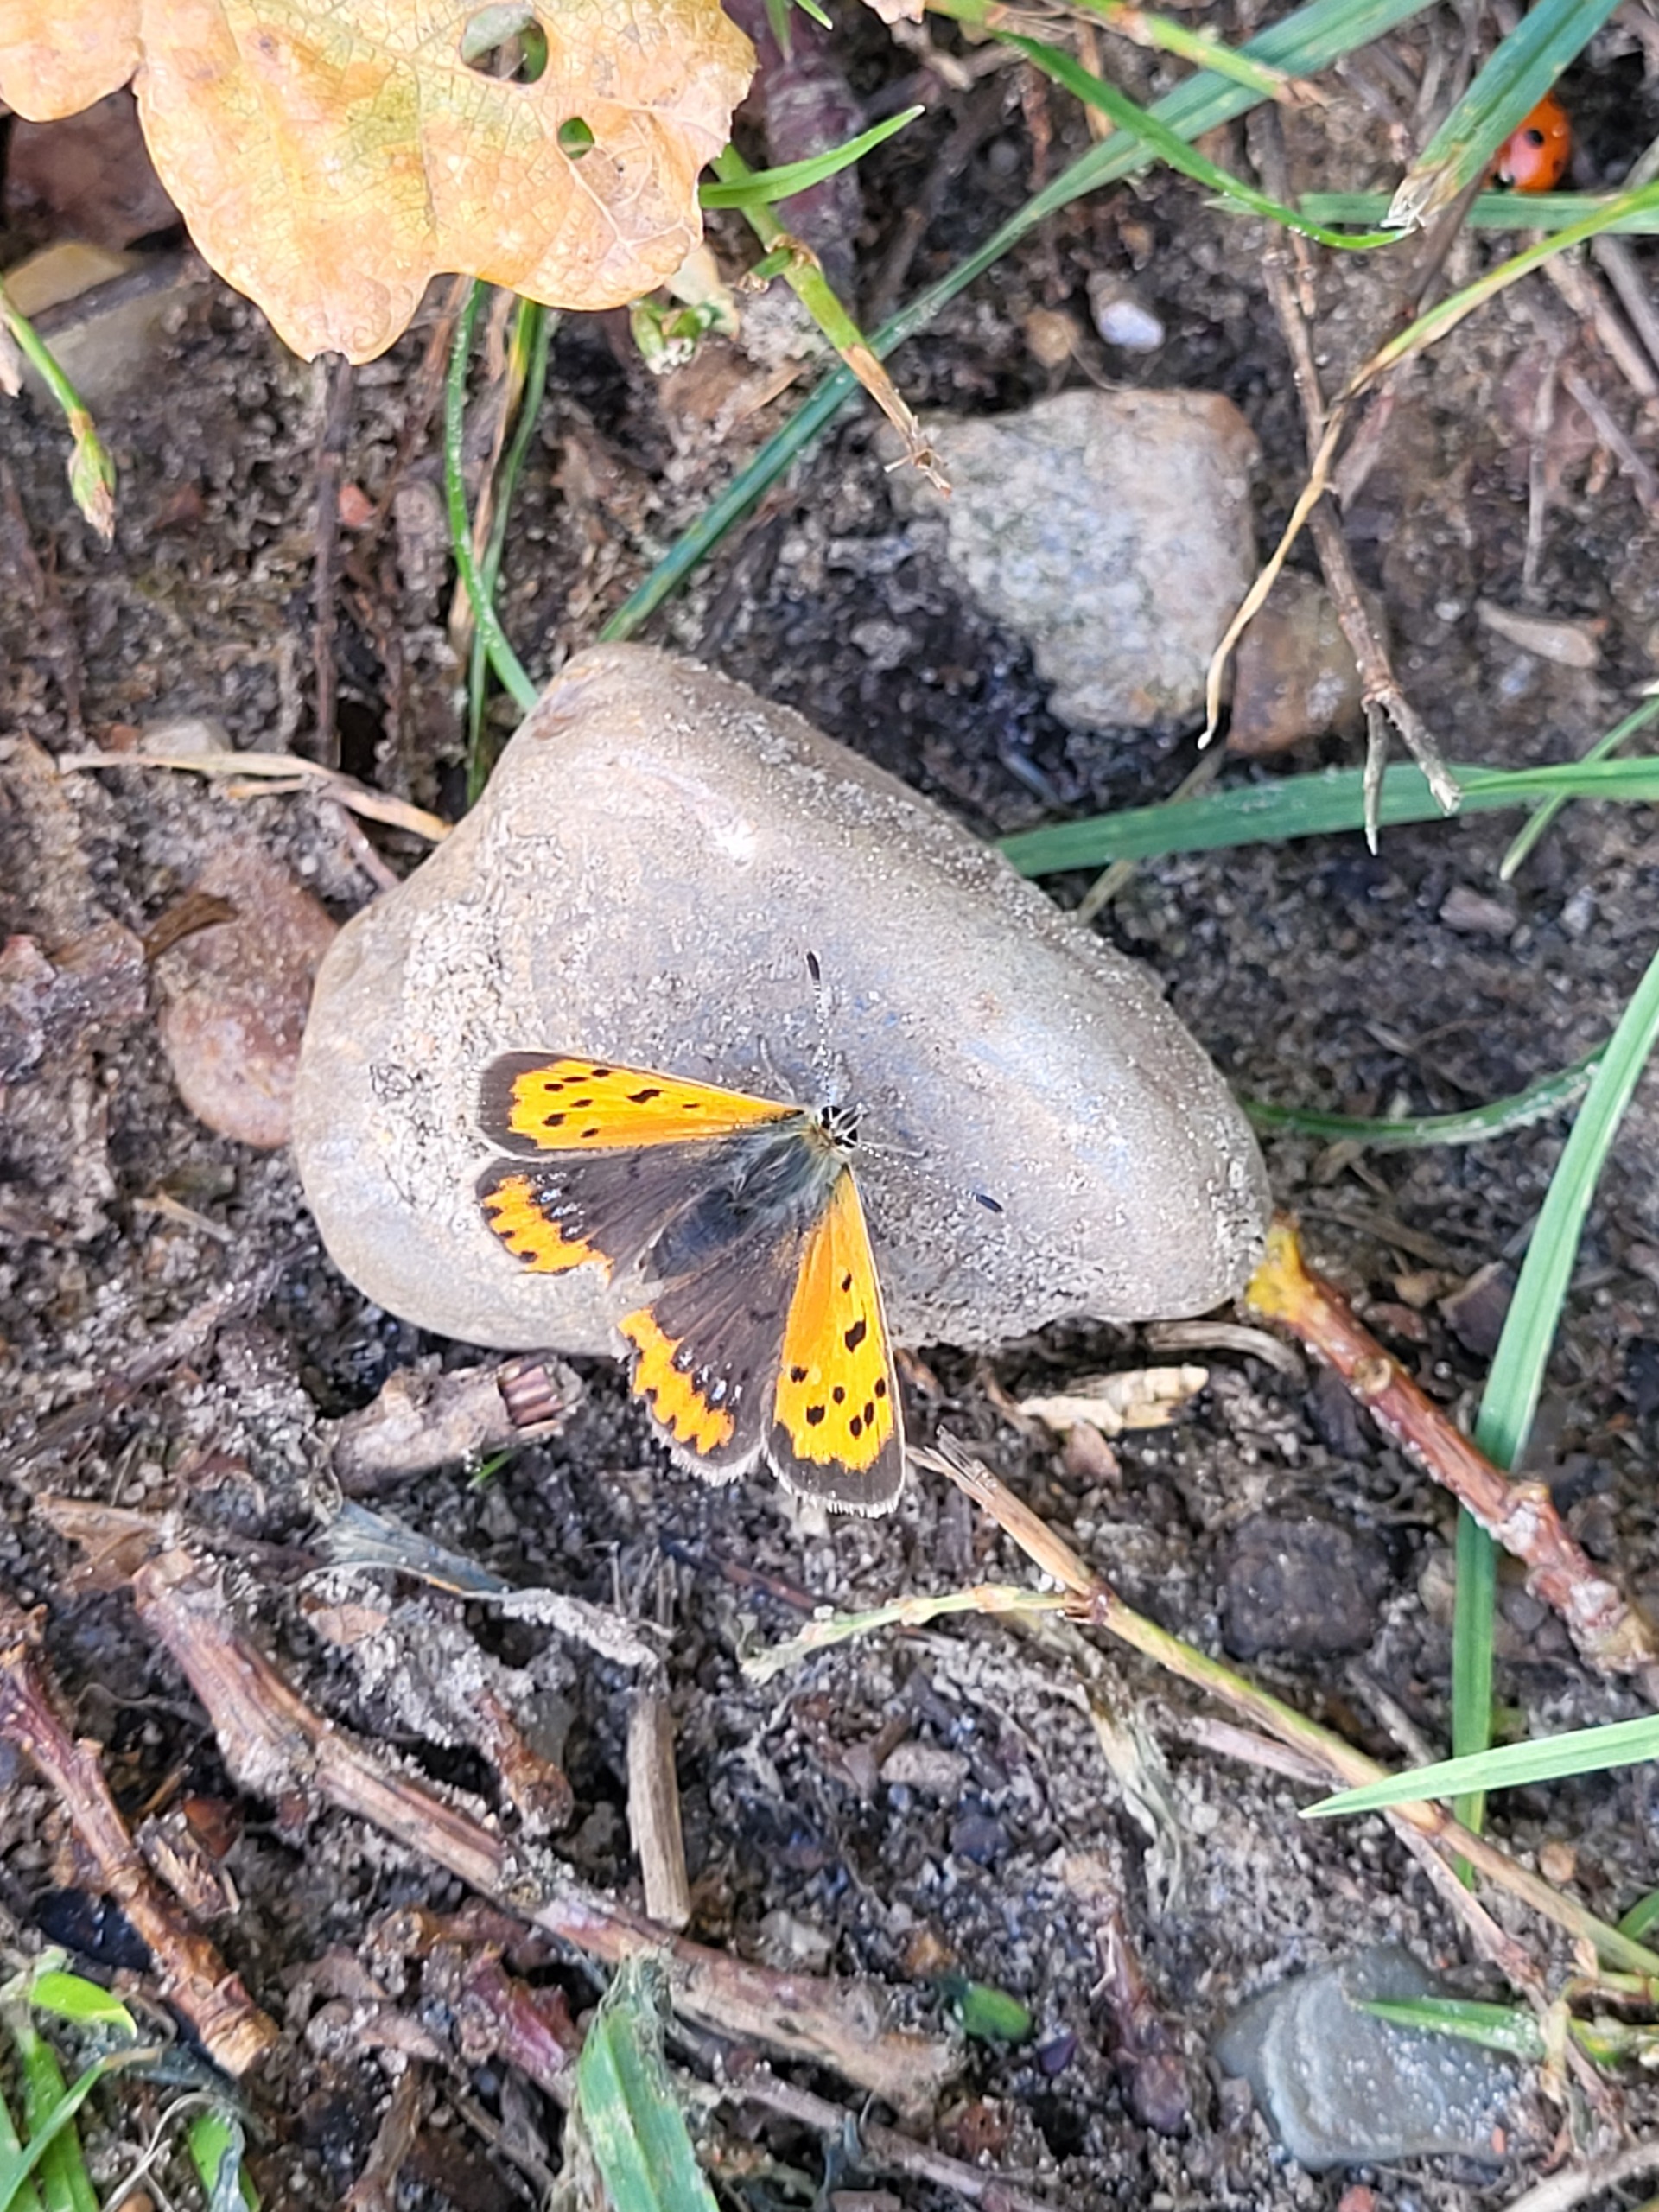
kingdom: Animalia
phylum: Arthropoda
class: Insecta
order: Lepidoptera
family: Lycaenidae
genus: Lycaena
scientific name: Lycaena phlaeas
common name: Lille ildfugl
